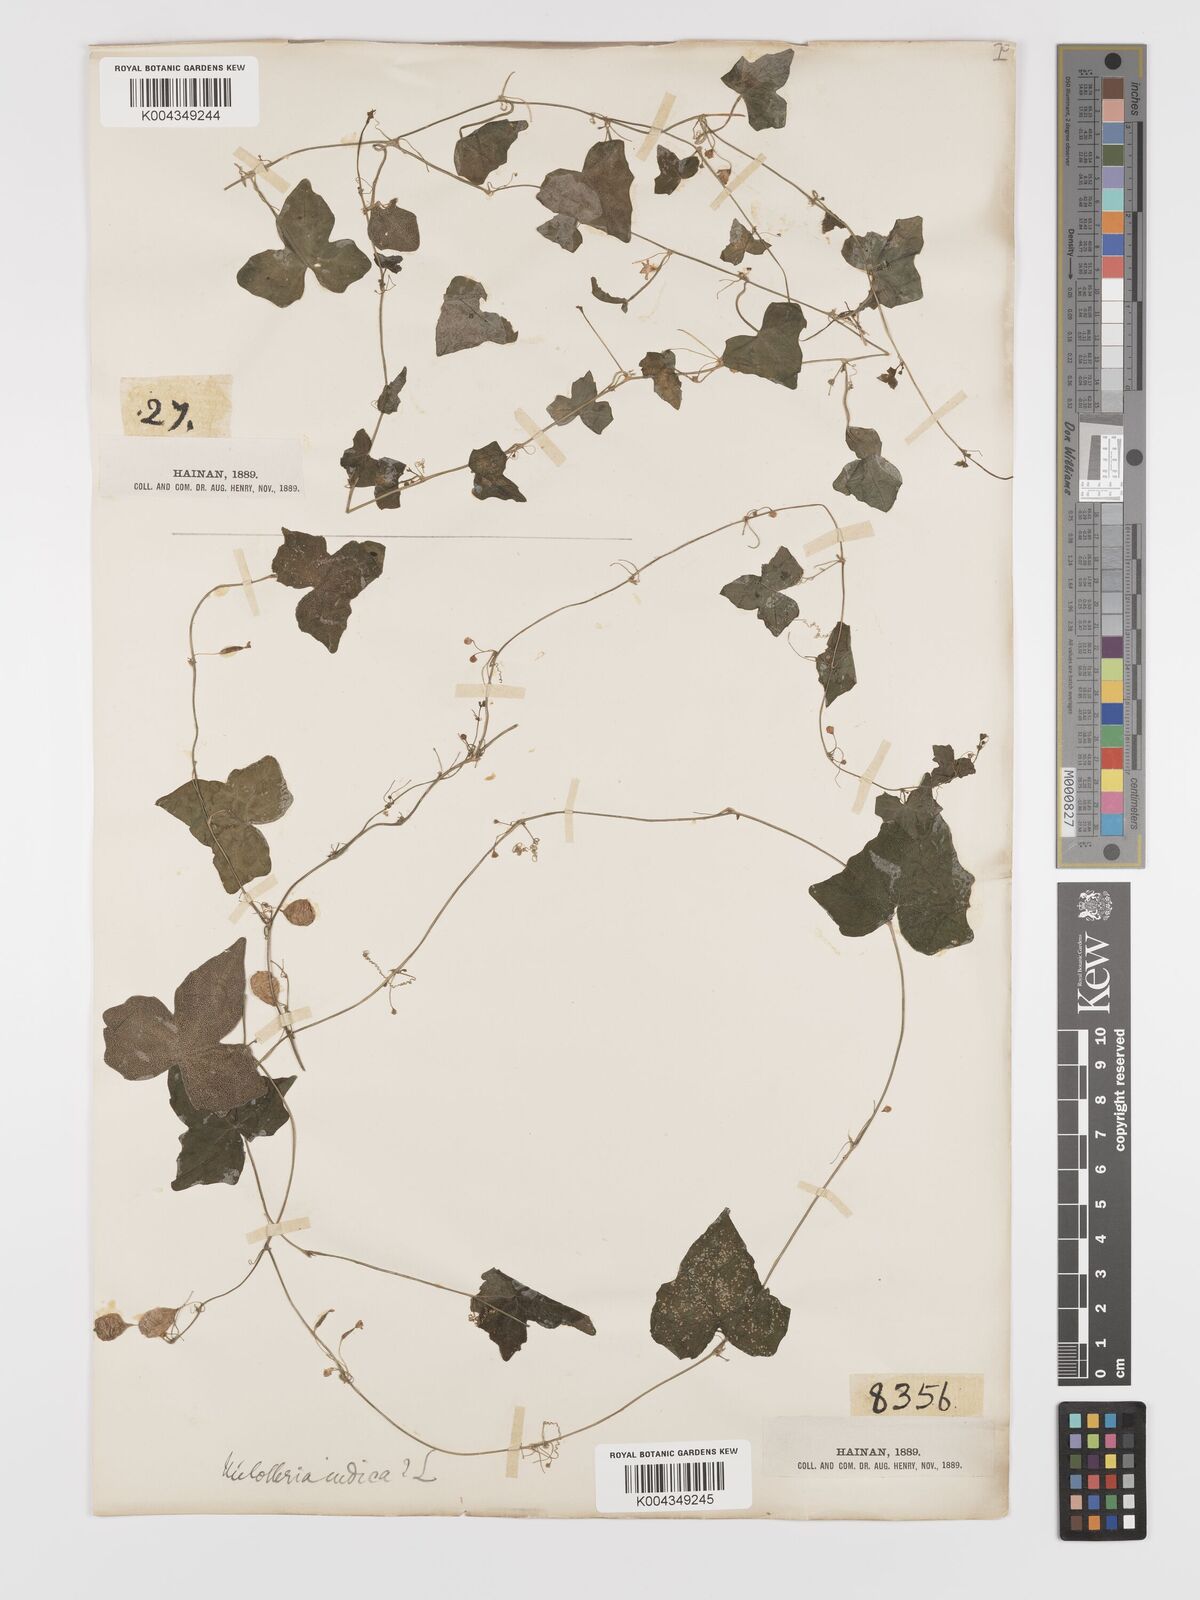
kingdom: Plantae
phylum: Tracheophyta
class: Magnoliopsida
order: Cucurbitales
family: Cucurbitaceae
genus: Zehneria
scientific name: Zehneria japonica
